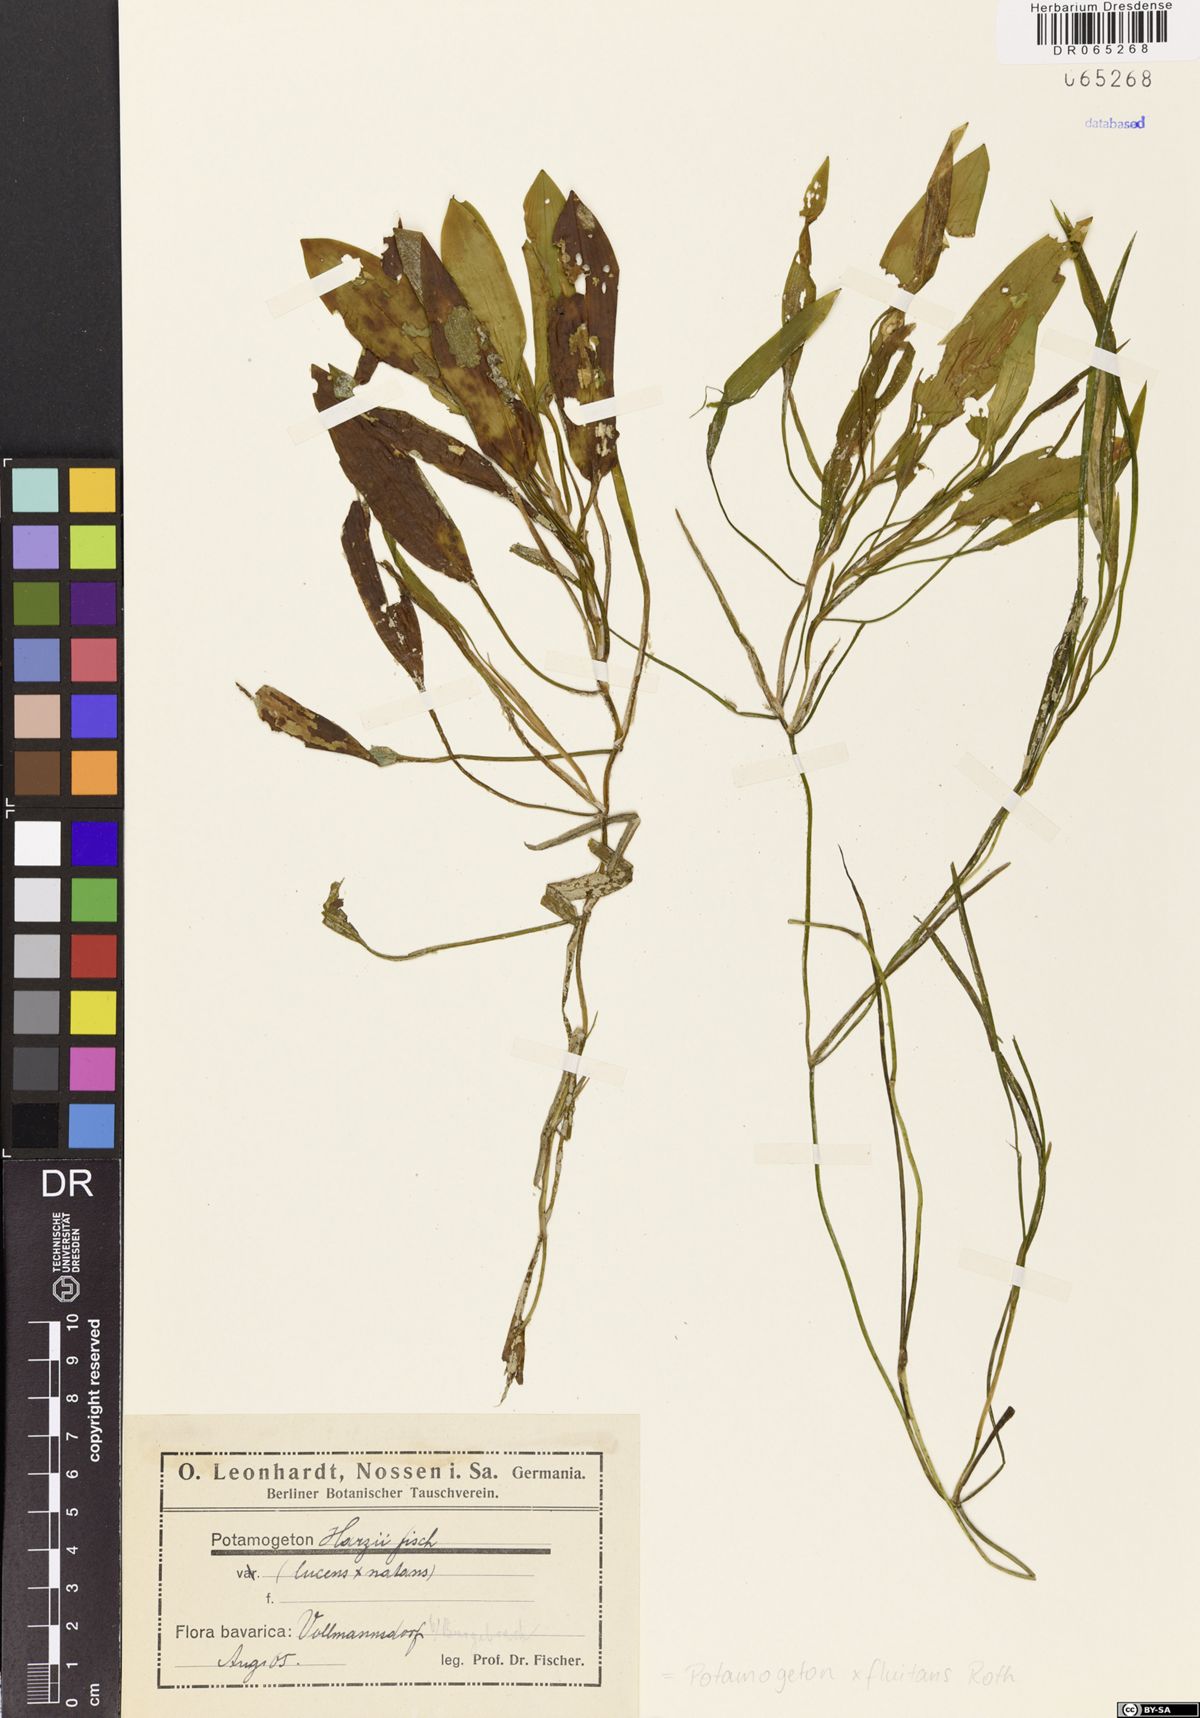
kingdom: Plantae
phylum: Tracheophyta
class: Liliopsida
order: Alismatales
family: Potamogetonaceae
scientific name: Potamogetonaceae
